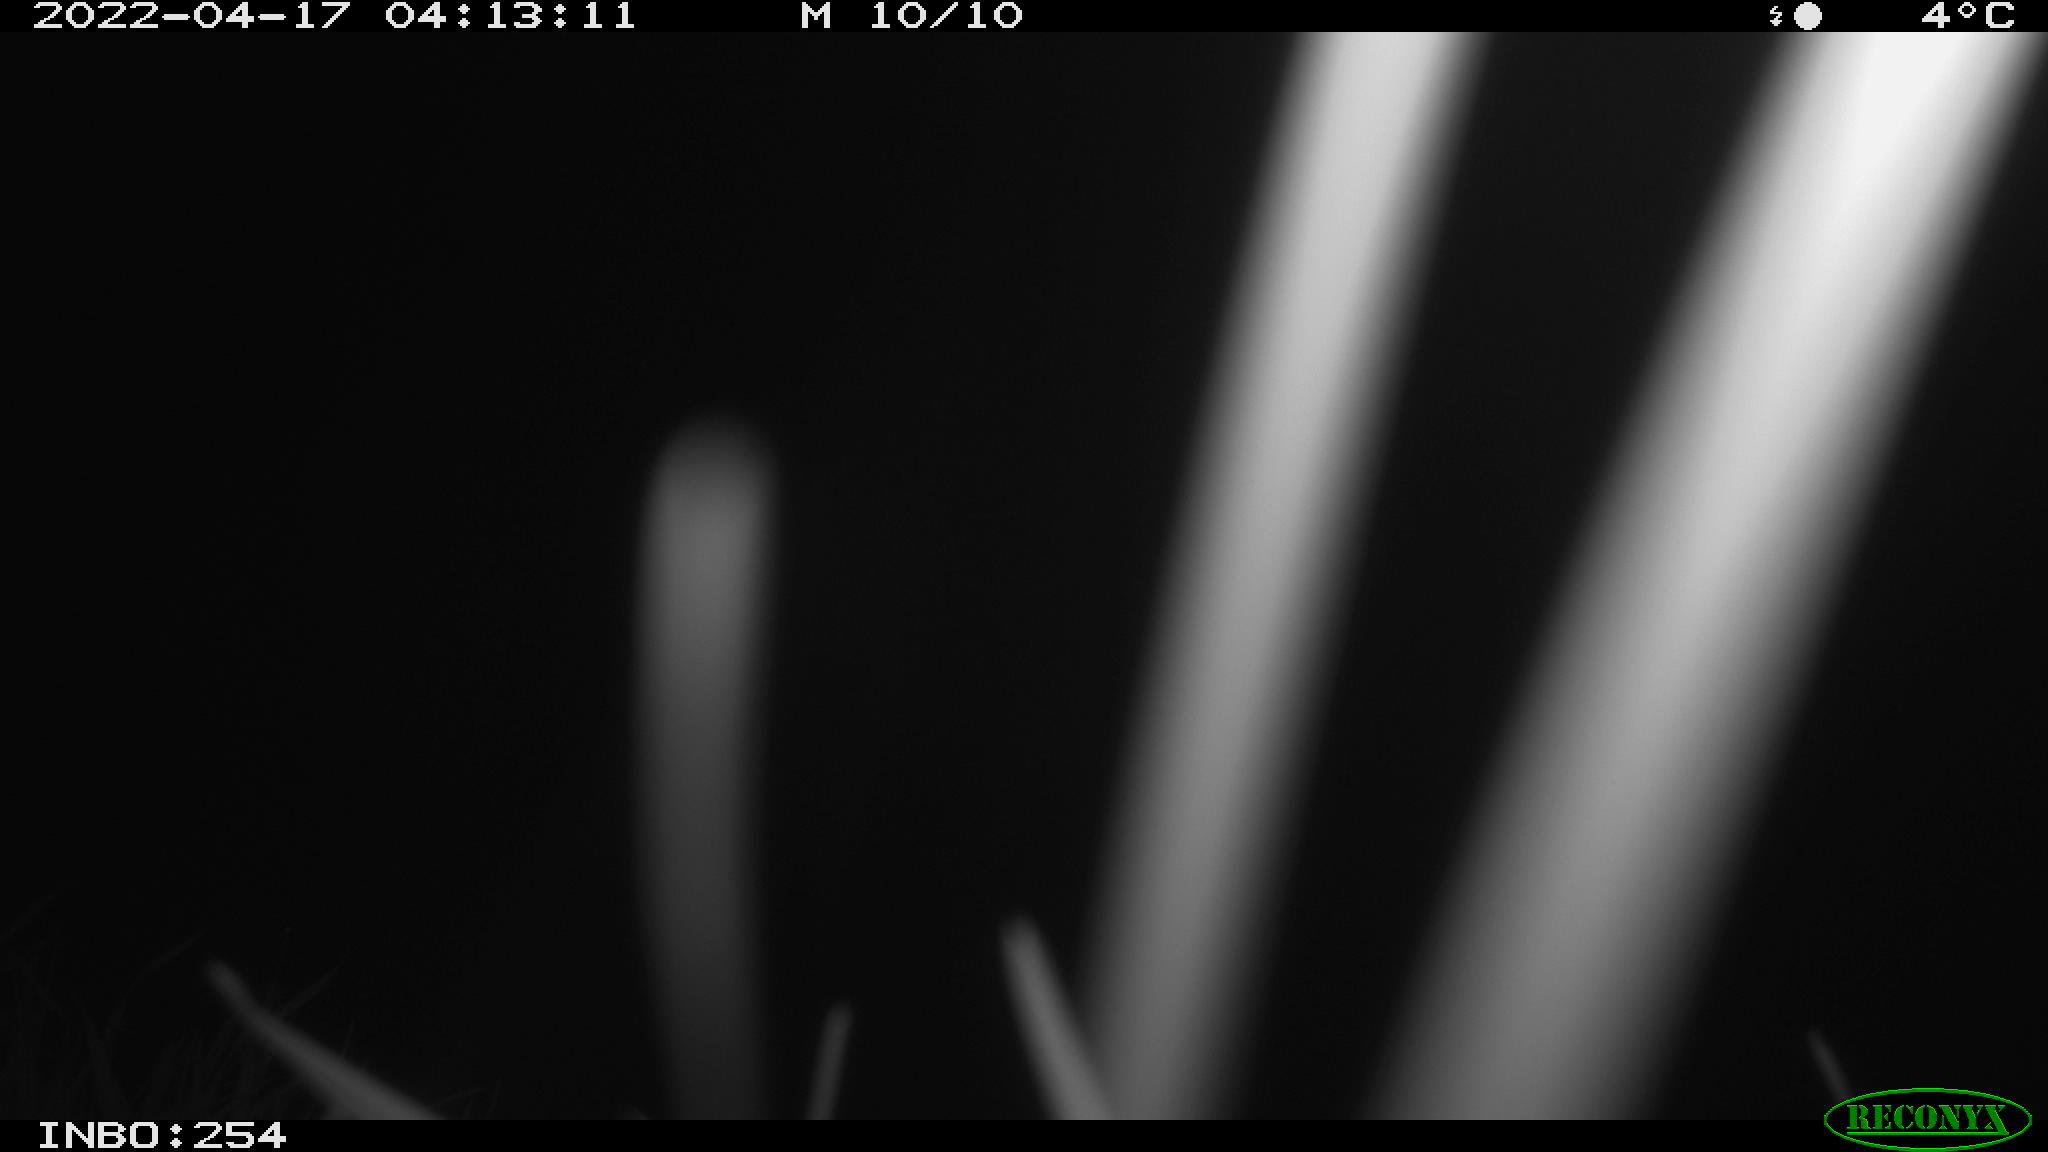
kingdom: Animalia
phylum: Chordata
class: Aves
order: Anseriformes
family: Anatidae
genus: Anas
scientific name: Anas platyrhynchos
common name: Mallard
